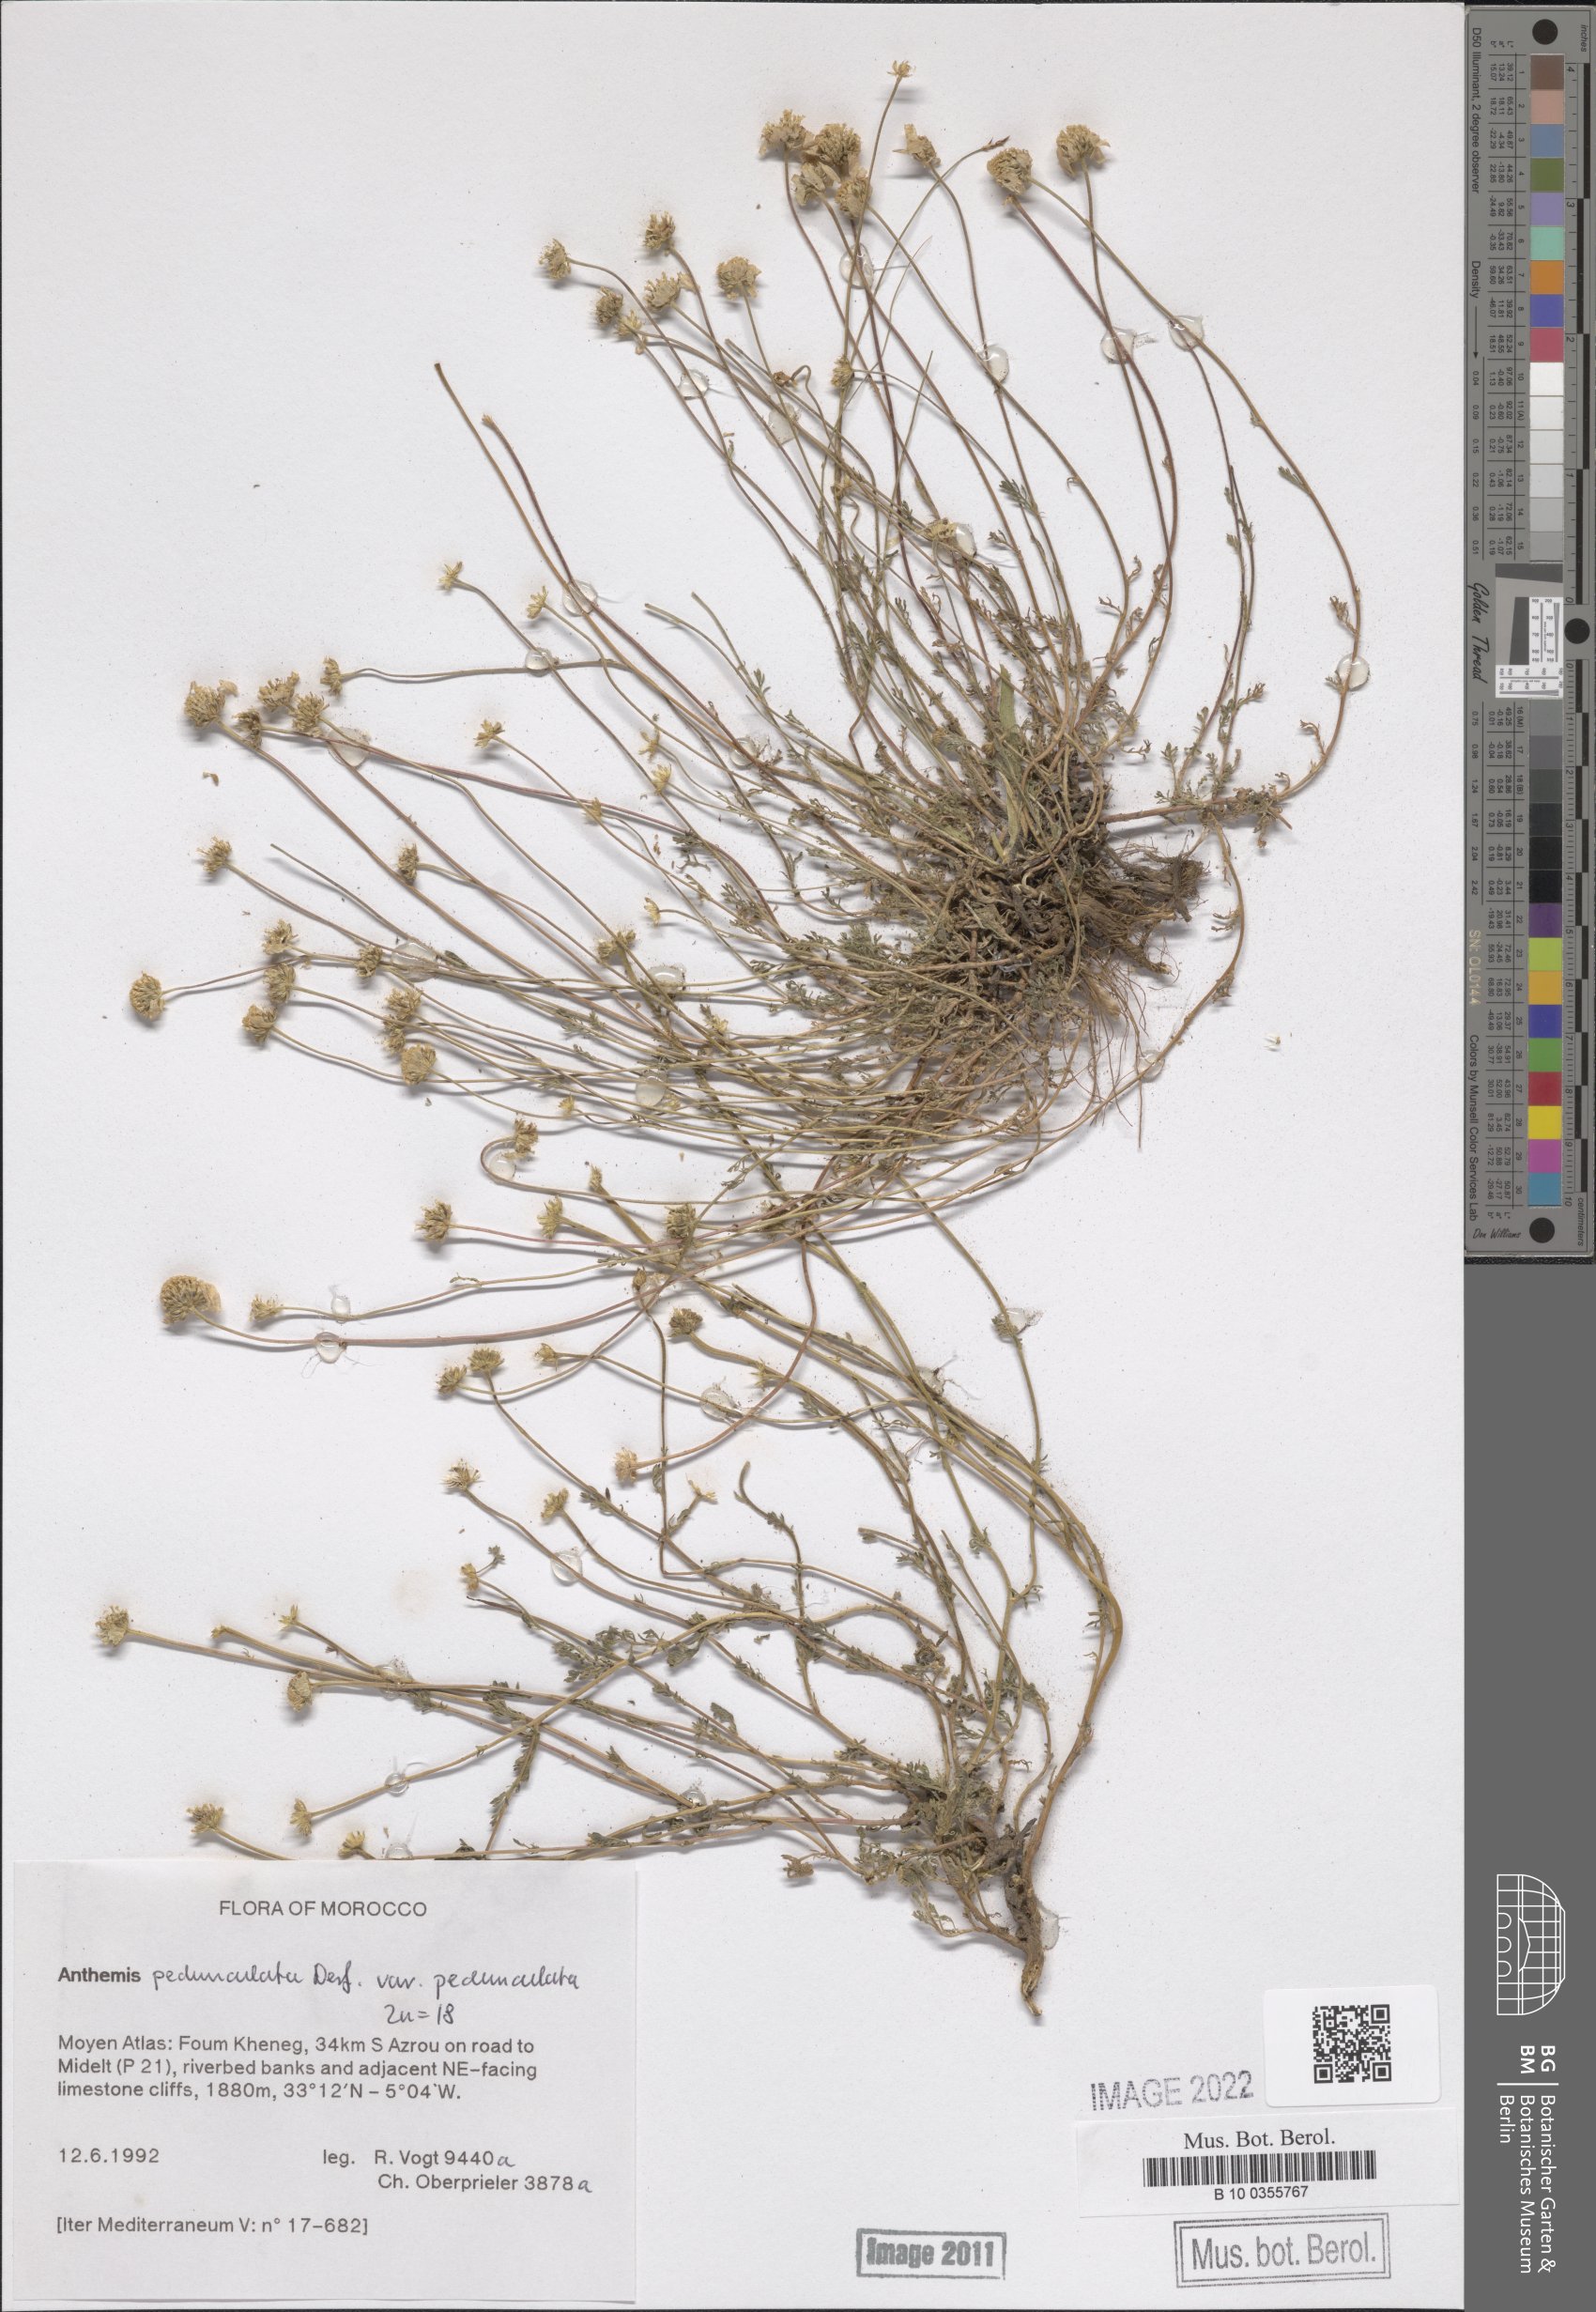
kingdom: Plantae
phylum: Tracheophyta
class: Magnoliopsida
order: Asterales
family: Asteraceae
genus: Anthemis
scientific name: Anthemis pedunculata
